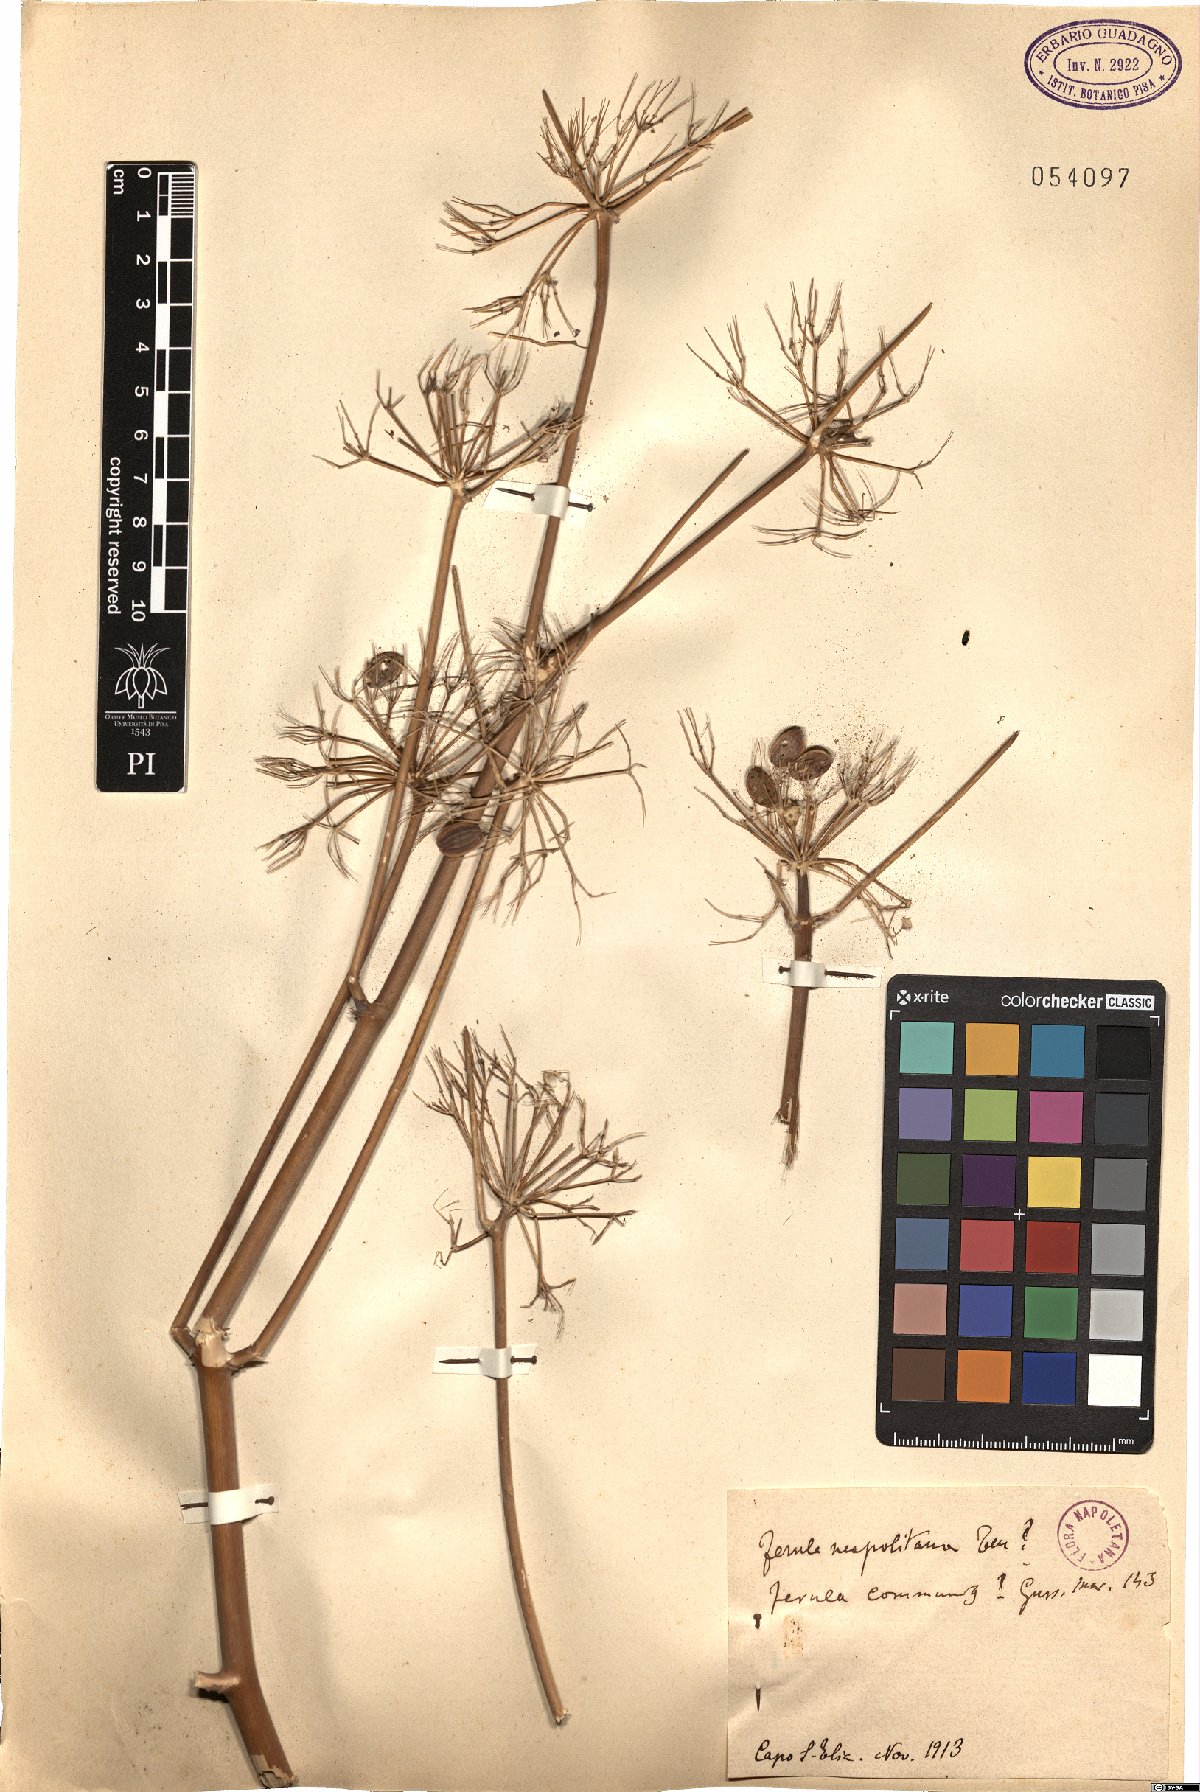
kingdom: Plantae
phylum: Tracheophyta
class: Magnoliopsida
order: Apiales
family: Apiaceae
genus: Ferula
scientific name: Ferula communis
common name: Giant fennel
